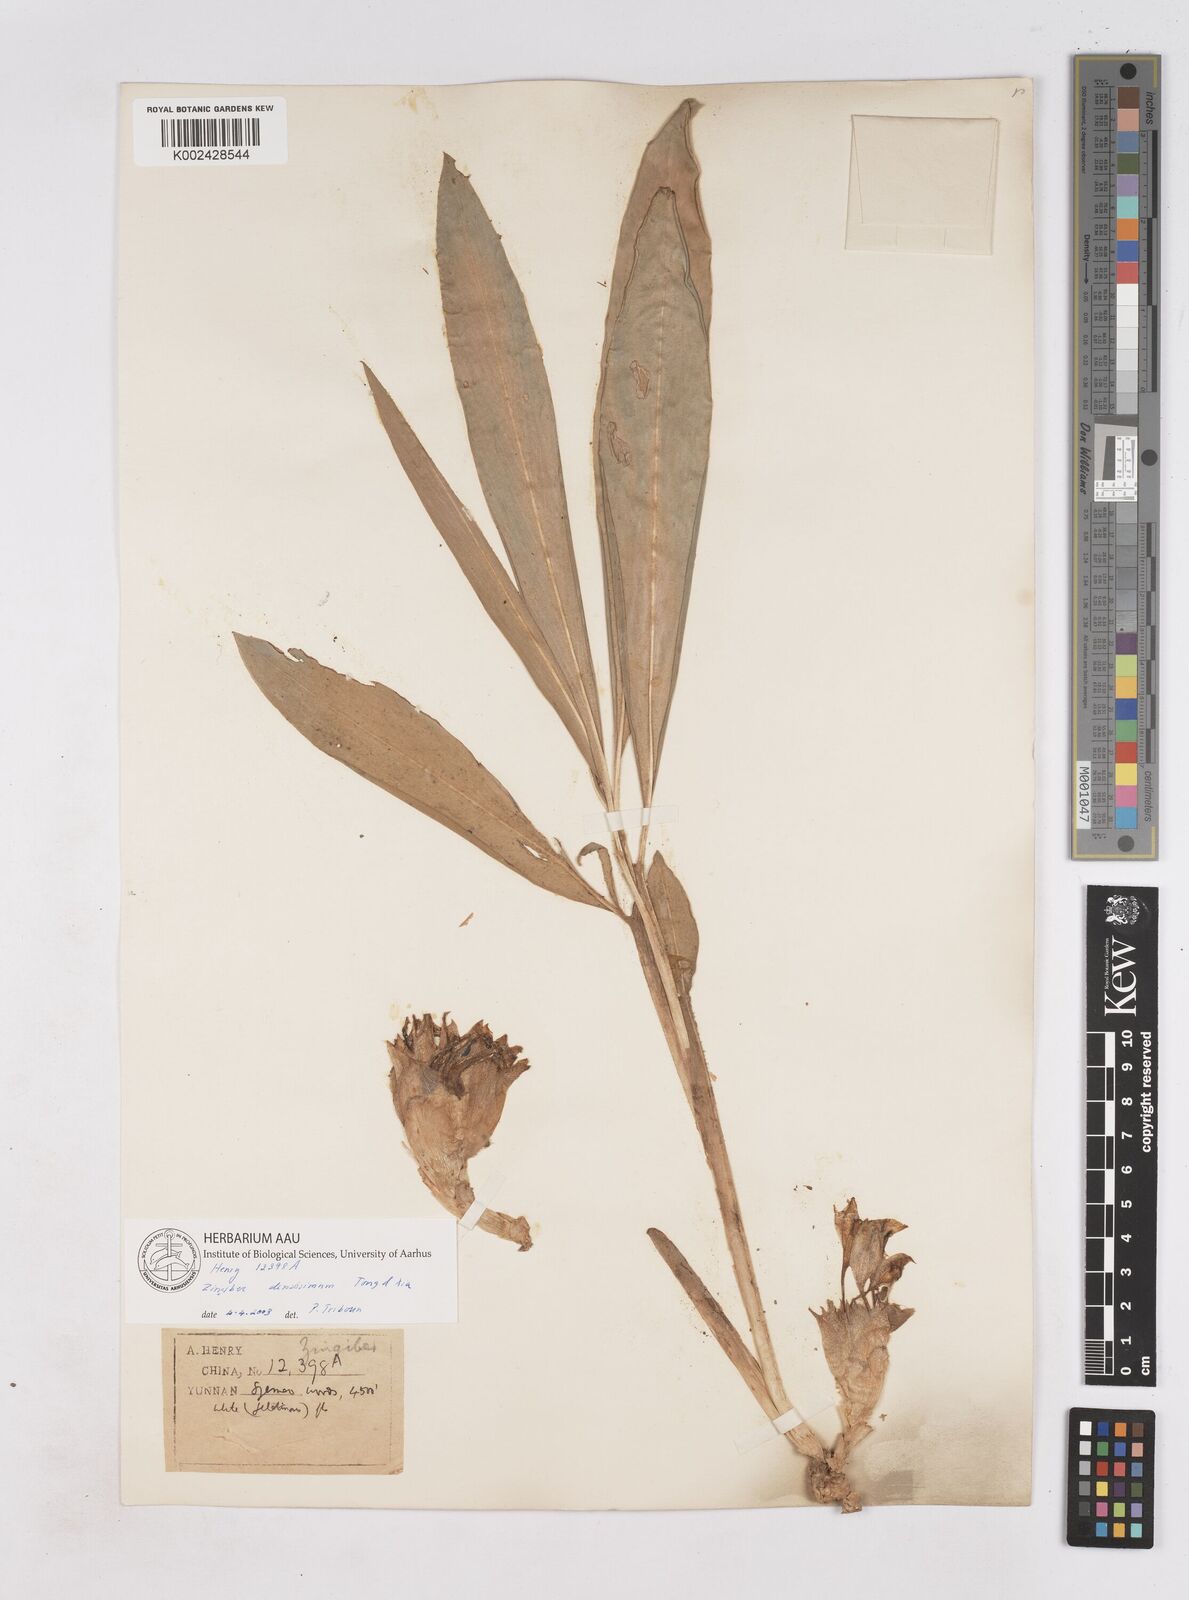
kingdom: Plantae
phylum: Tracheophyta
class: Liliopsida
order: Zingiberales
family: Zingiberaceae
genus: Zingiber
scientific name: Zingiber densissimum
